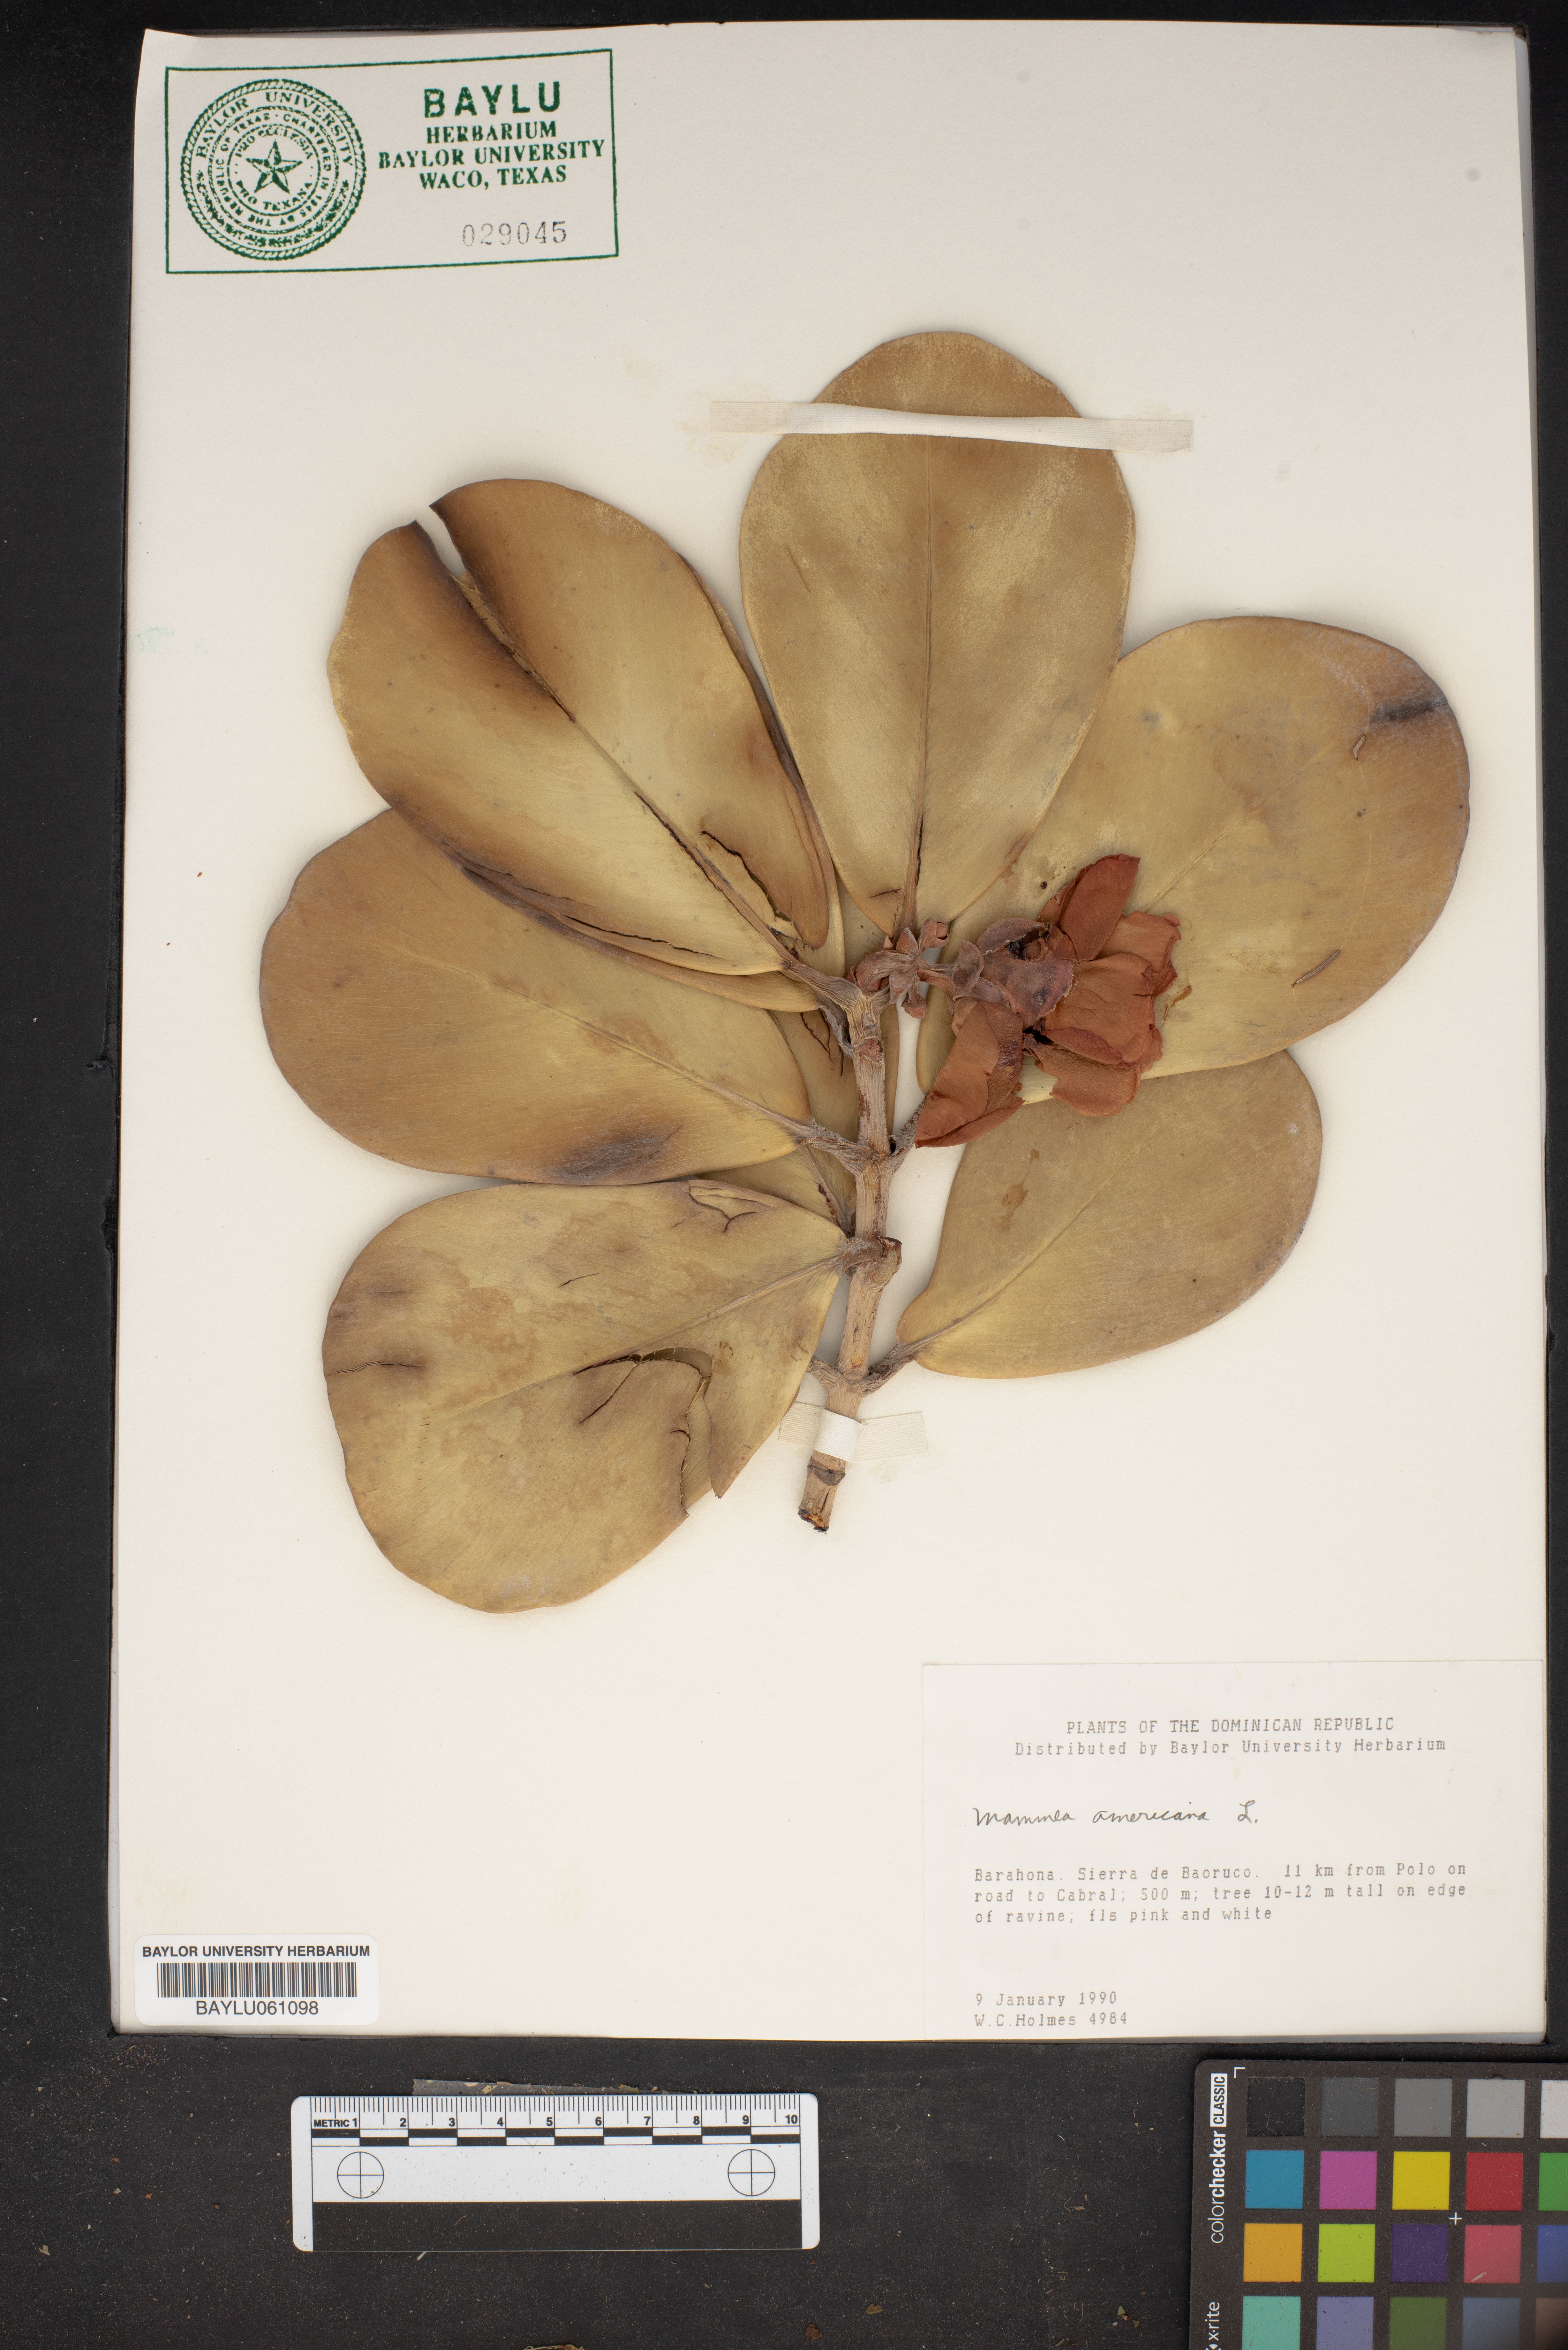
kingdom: Plantae
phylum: Tracheophyta
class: Magnoliopsida
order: Malpighiales
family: Calophyllaceae
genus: Mammea
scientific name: Mammea americana
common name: Mamey
